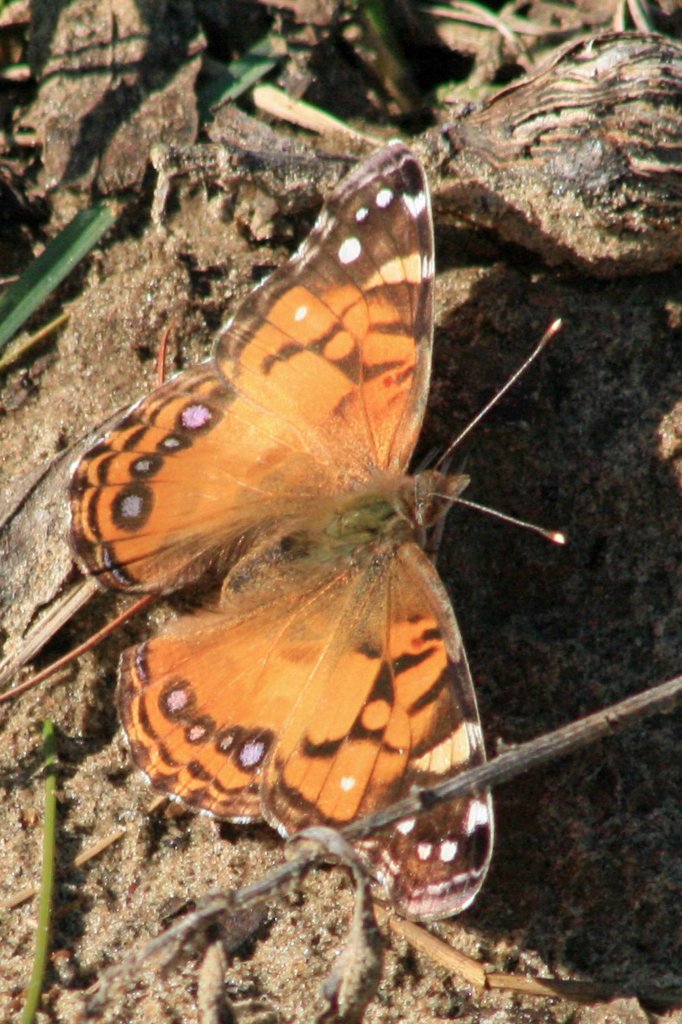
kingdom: Animalia
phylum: Arthropoda
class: Insecta
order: Lepidoptera
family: Nymphalidae
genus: Vanessa
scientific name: Vanessa virginiensis
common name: American Lady
